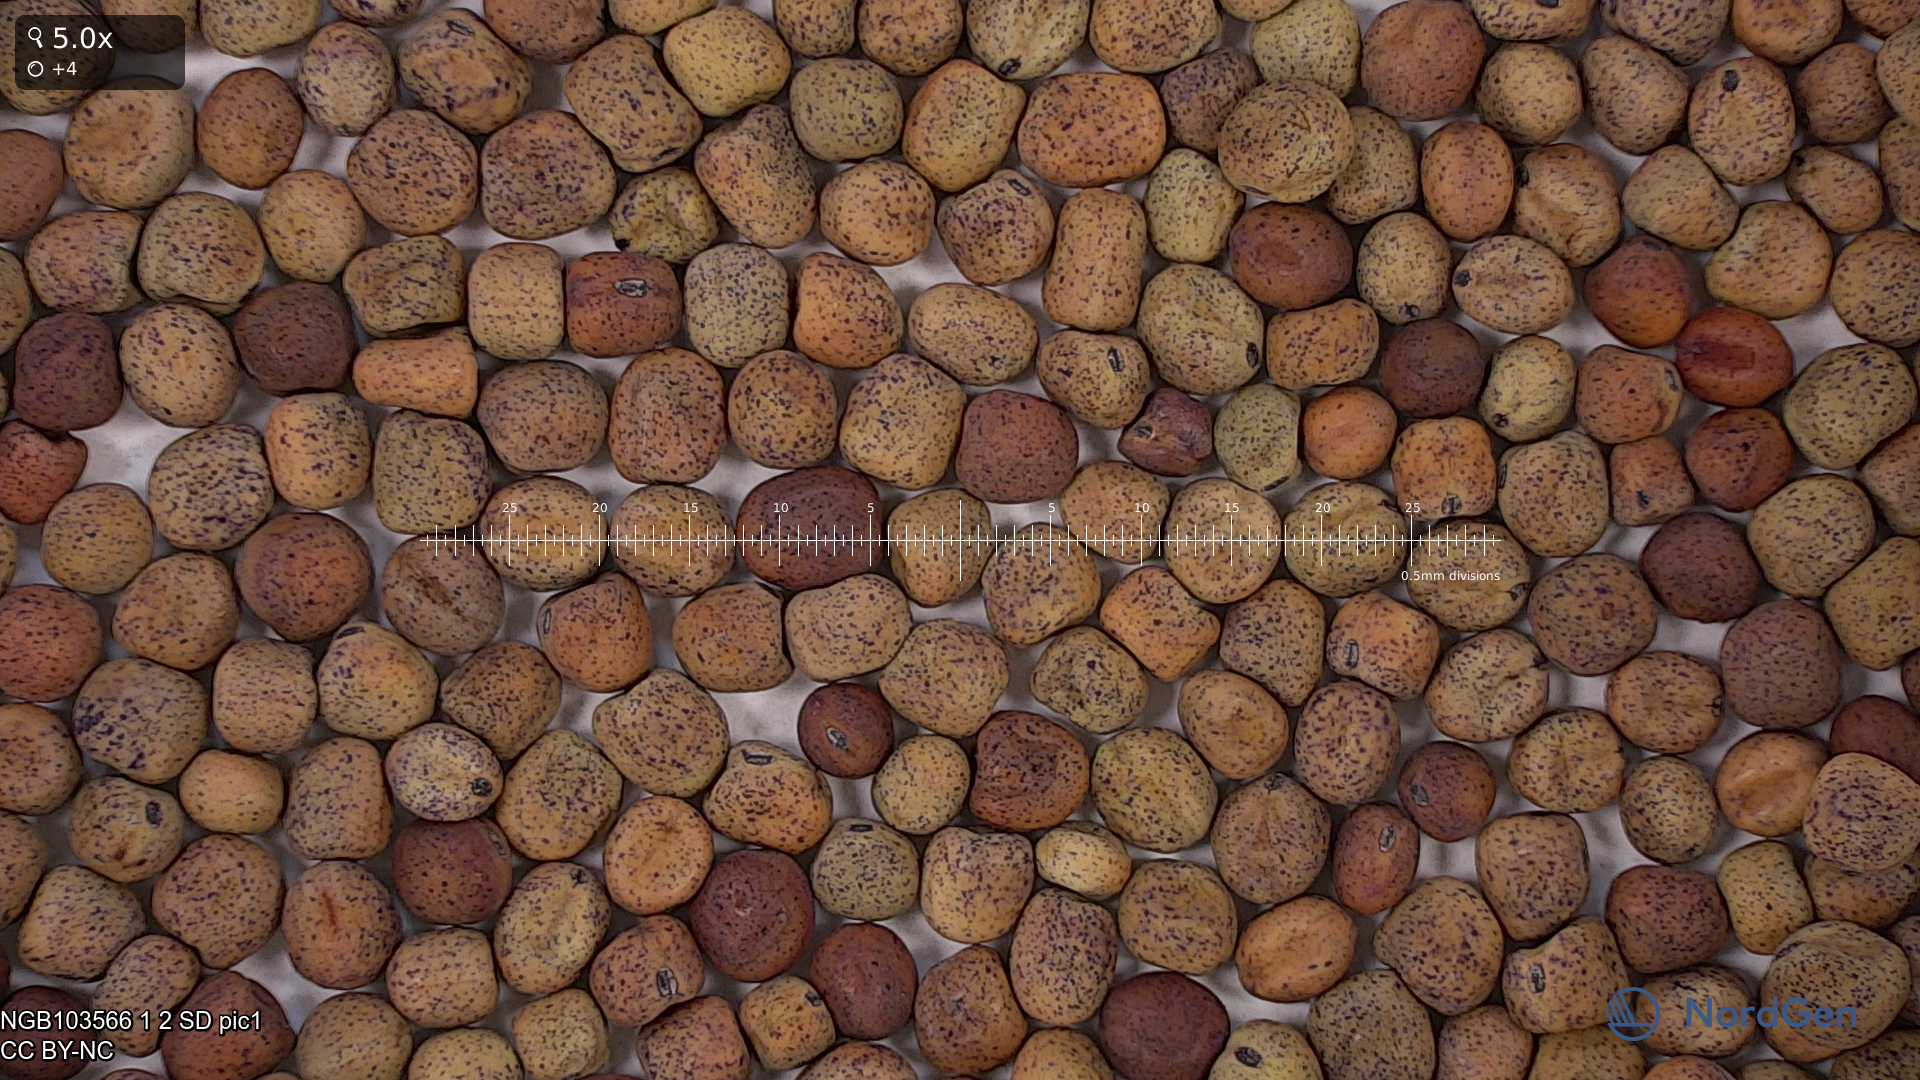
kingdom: Plantae
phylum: Tracheophyta
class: Magnoliopsida
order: Fabales
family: Fabaceae
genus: Lathyrus
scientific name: Lathyrus oleraceus
